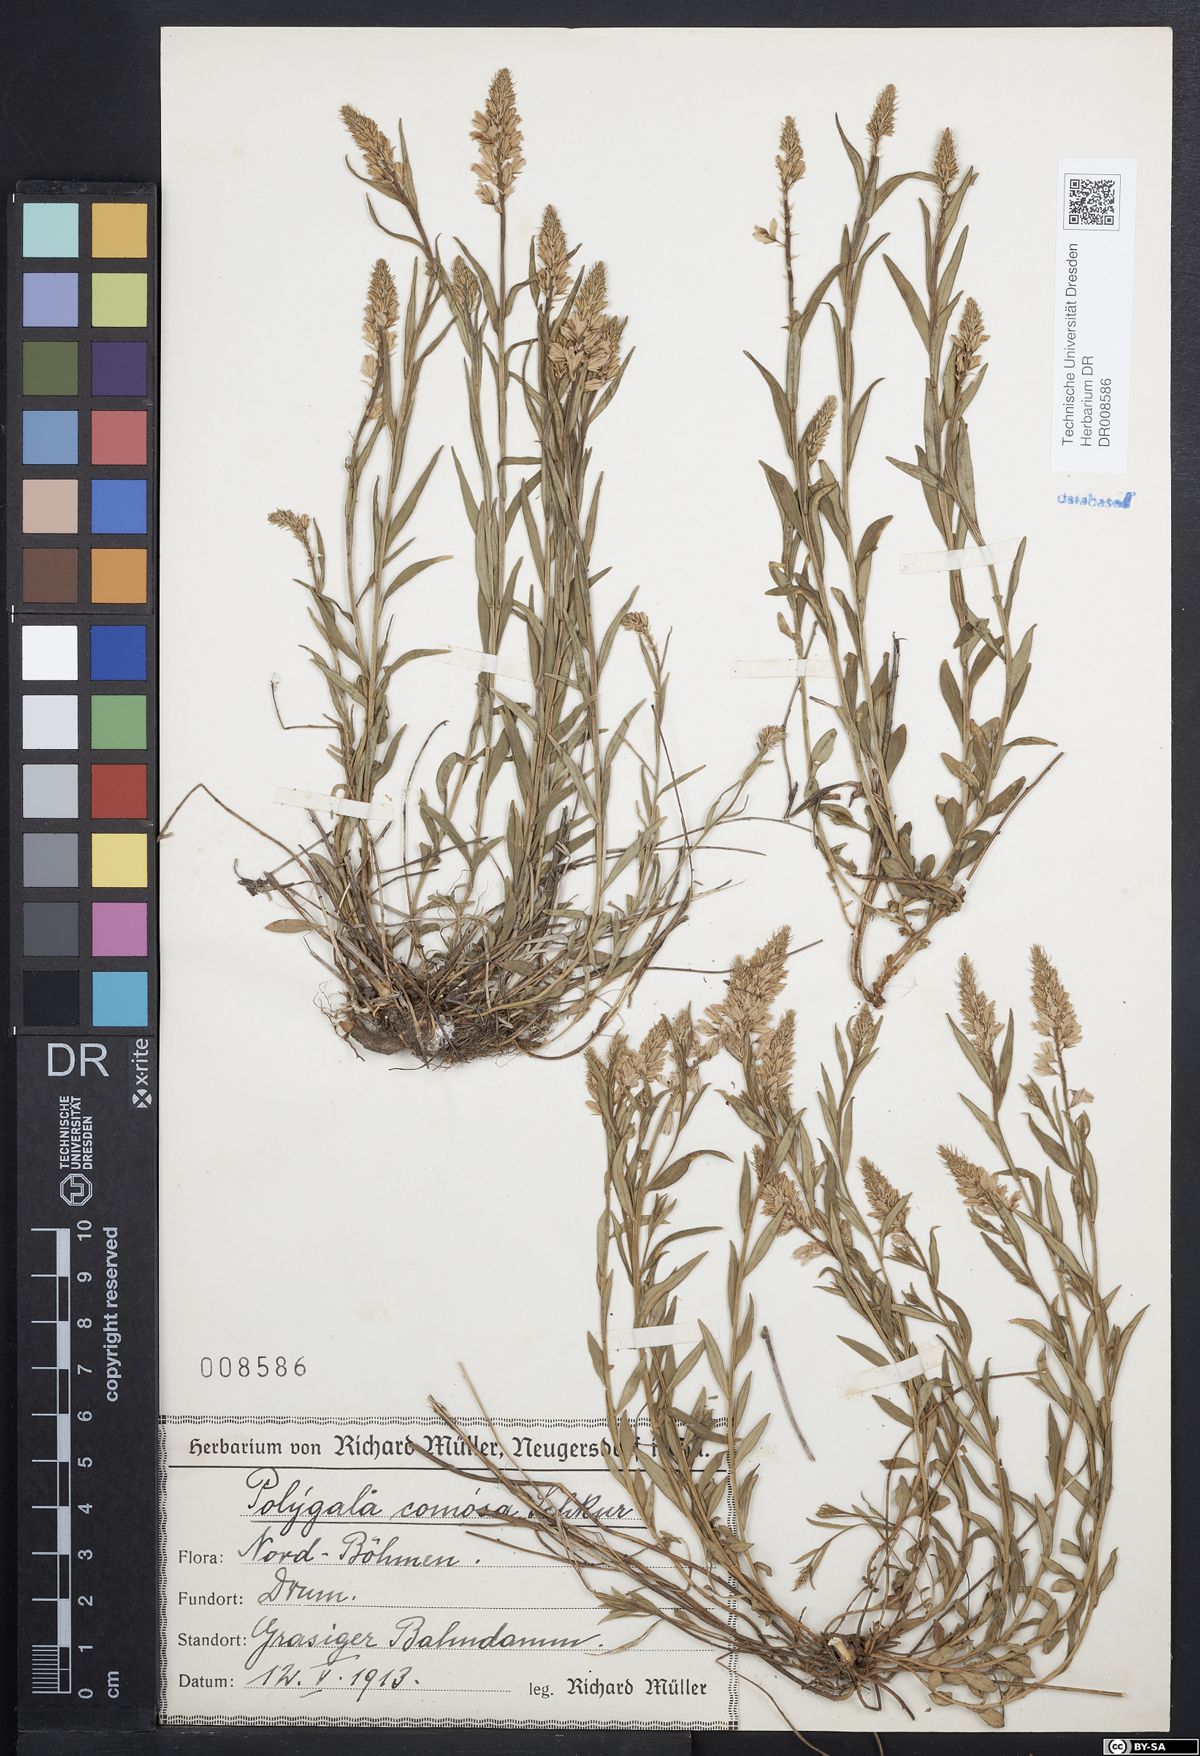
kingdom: Plantae
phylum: Tracheophyta
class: Magnoliopsida
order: Fabales
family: Polygalaceae
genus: Polygala
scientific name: Polygala comosa
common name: Tufted milkwort
